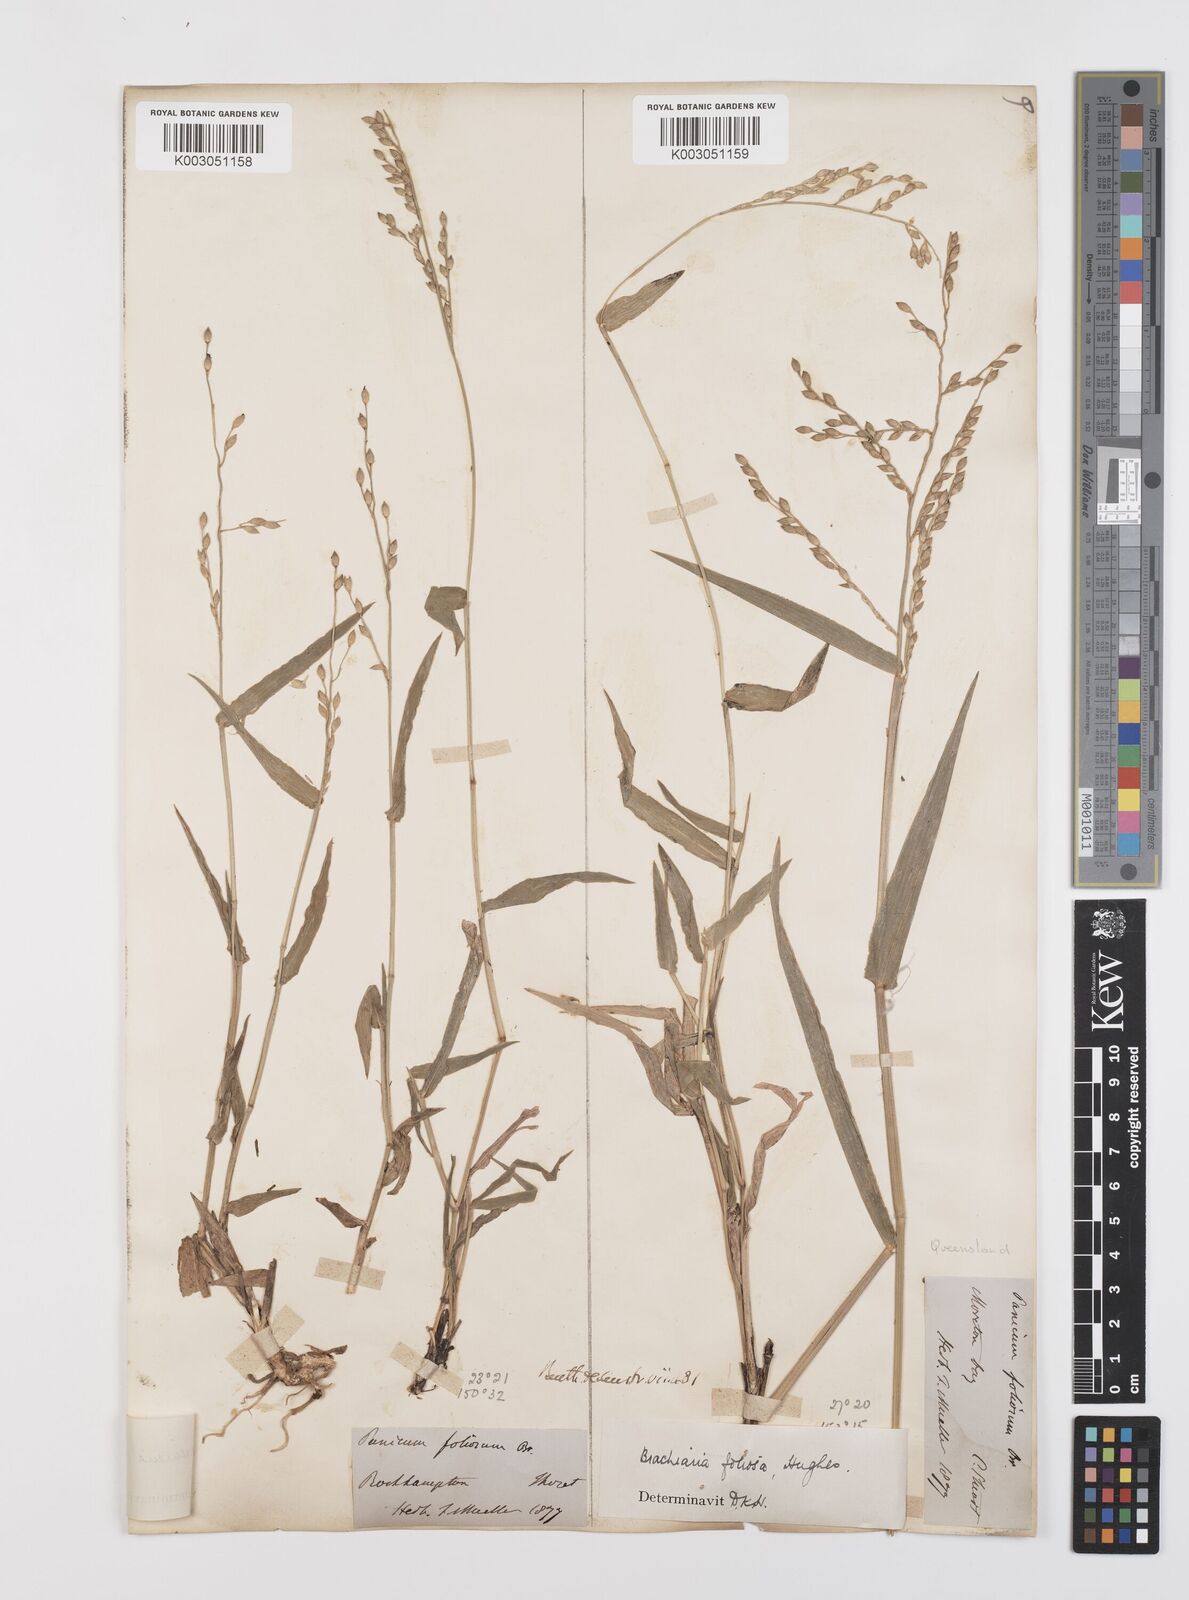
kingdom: Plantae
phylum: Tracheophyta
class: Liliopsida
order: Poales
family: Poaceae
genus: Urochloa
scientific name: Urochloa foliosa
